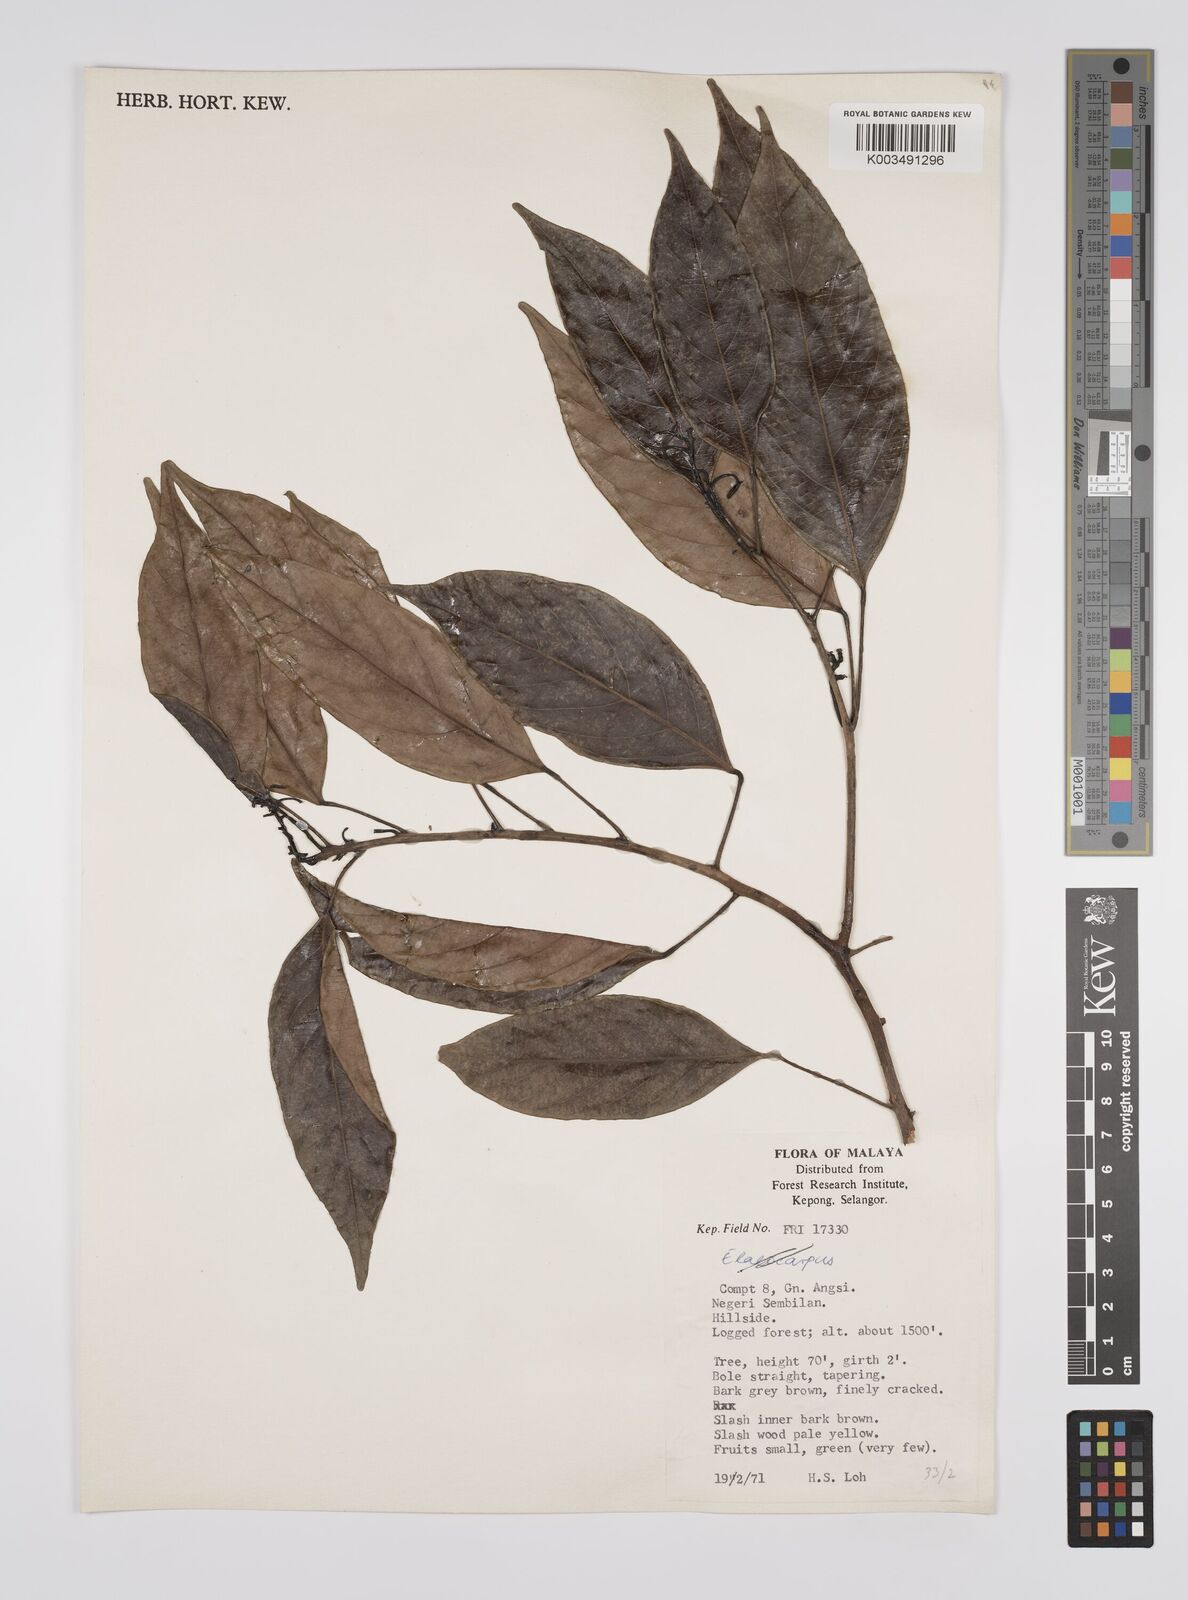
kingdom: Plantae
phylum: Tracheophyta
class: Magnoliopsida
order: Malpighiales
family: Euphorbiaceae
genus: Blumeodendron
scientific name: Blumeodendron
